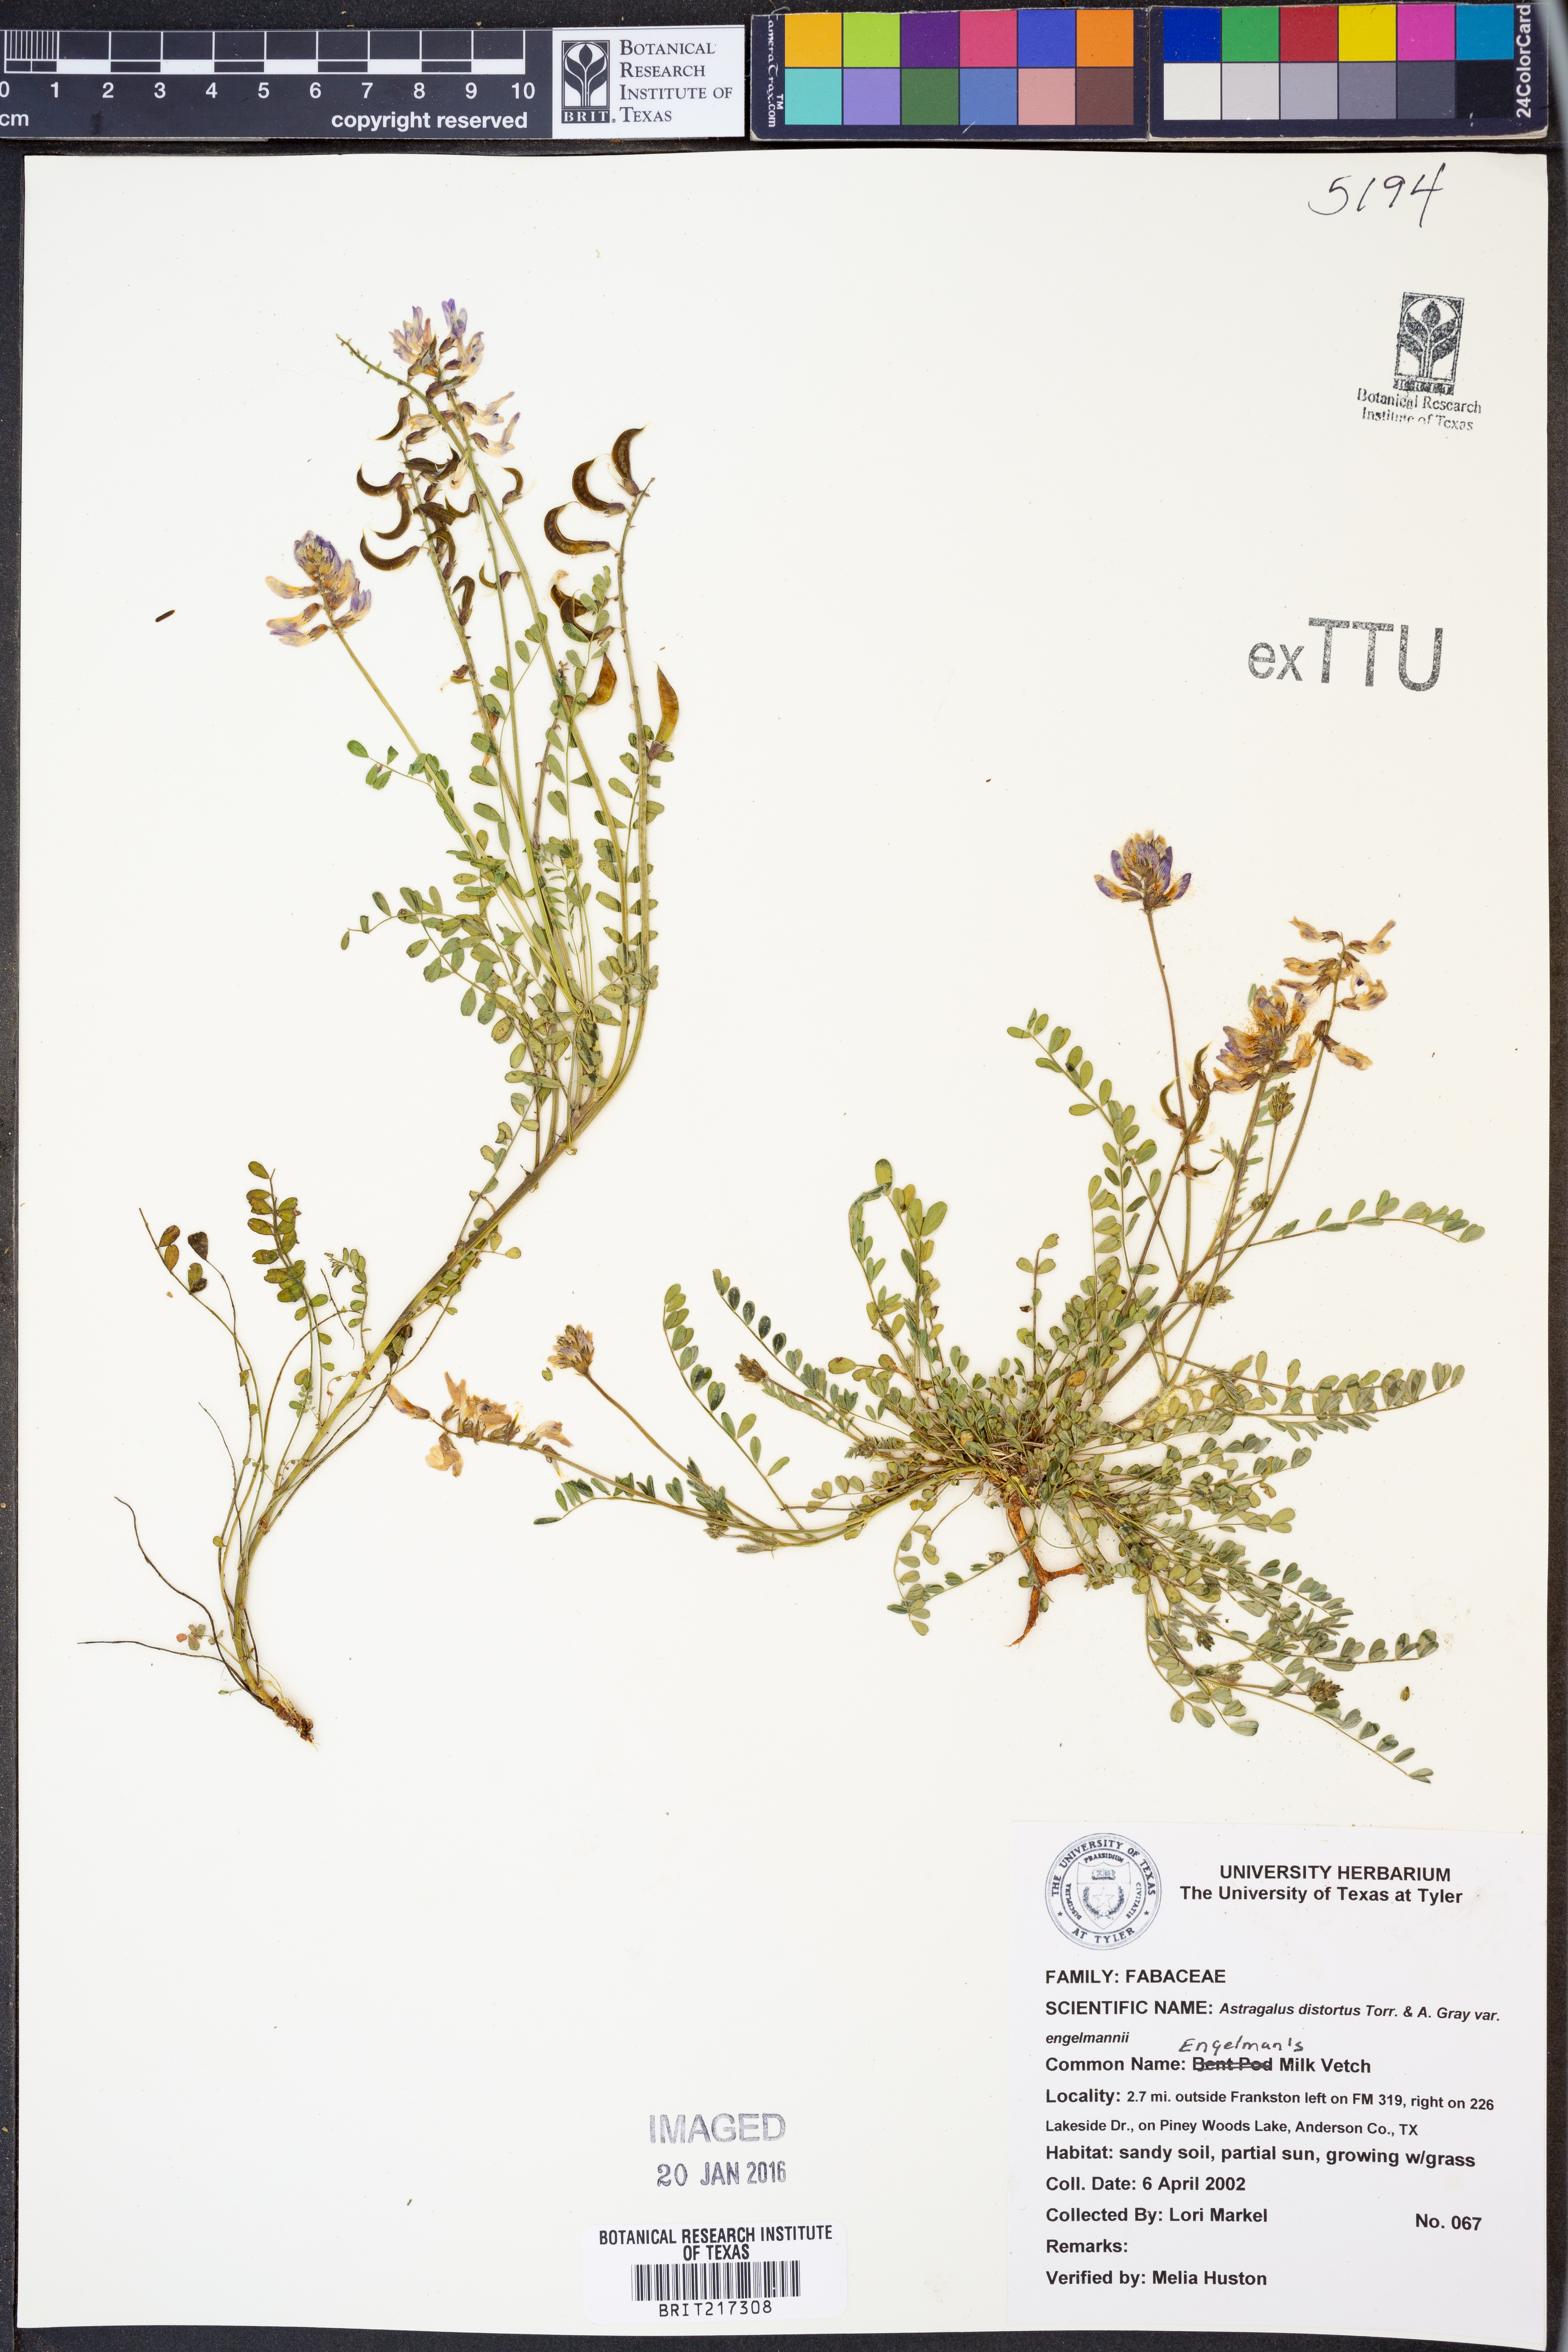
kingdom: Plantae
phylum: Tracheophyta
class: Magnoliopsida
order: Fabales
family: Fabaceae
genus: Astragalus
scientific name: Astragalus distortus
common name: Ozark milk-vetch
